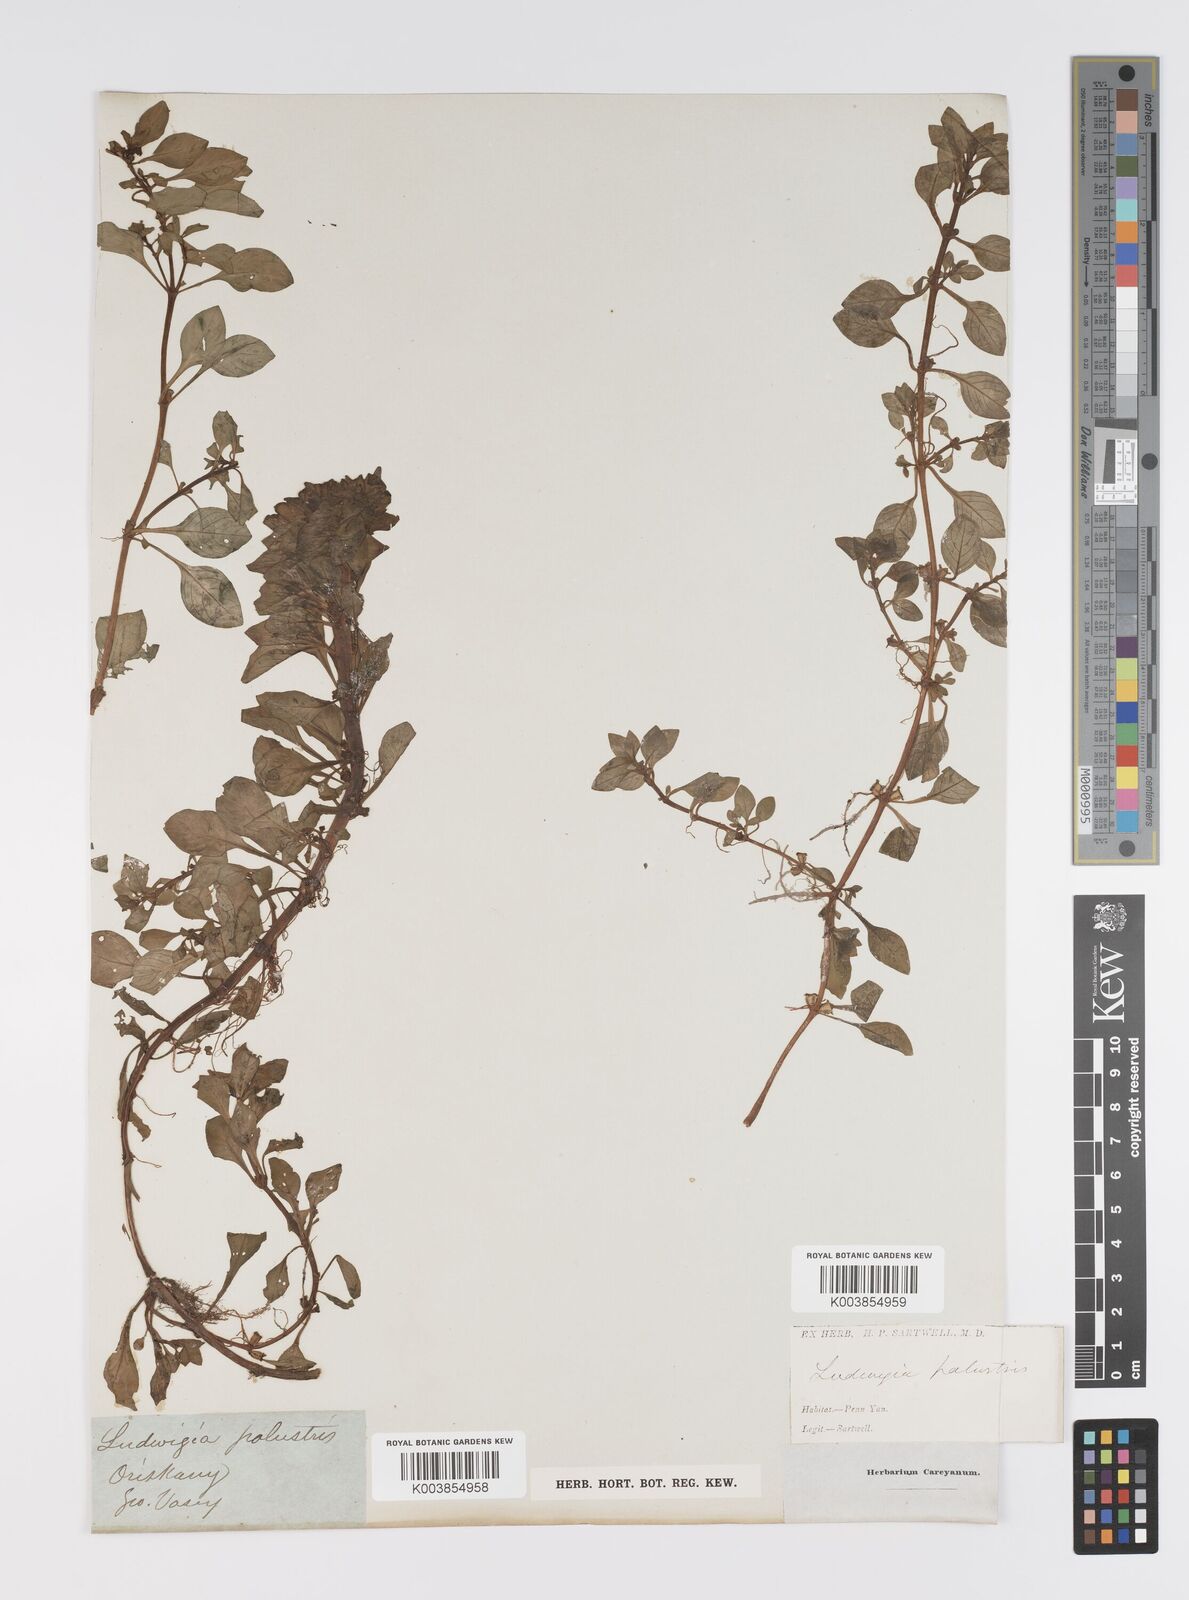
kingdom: Plantae
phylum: Tracheophyta
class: Magnoliopsida
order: Myrtales
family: Onagraceae
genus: Ludwigia
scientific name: Ludwigia palustris
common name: Hampshire-purslane
